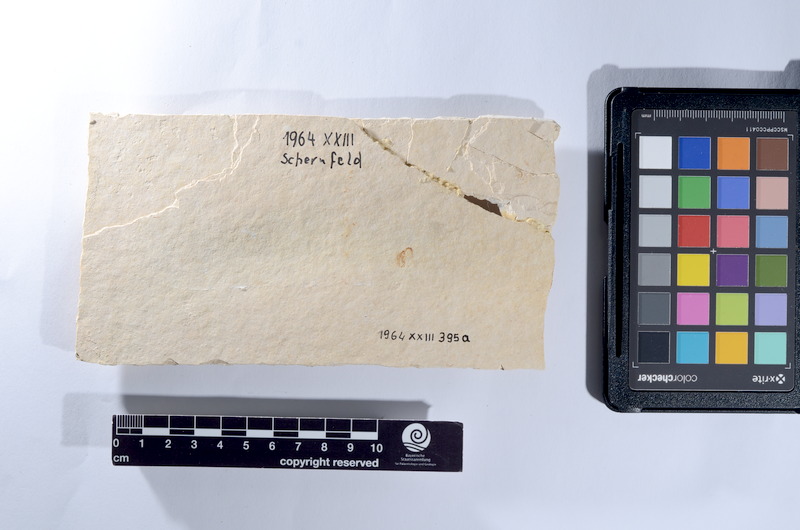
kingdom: Animalia
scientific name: Animalia
